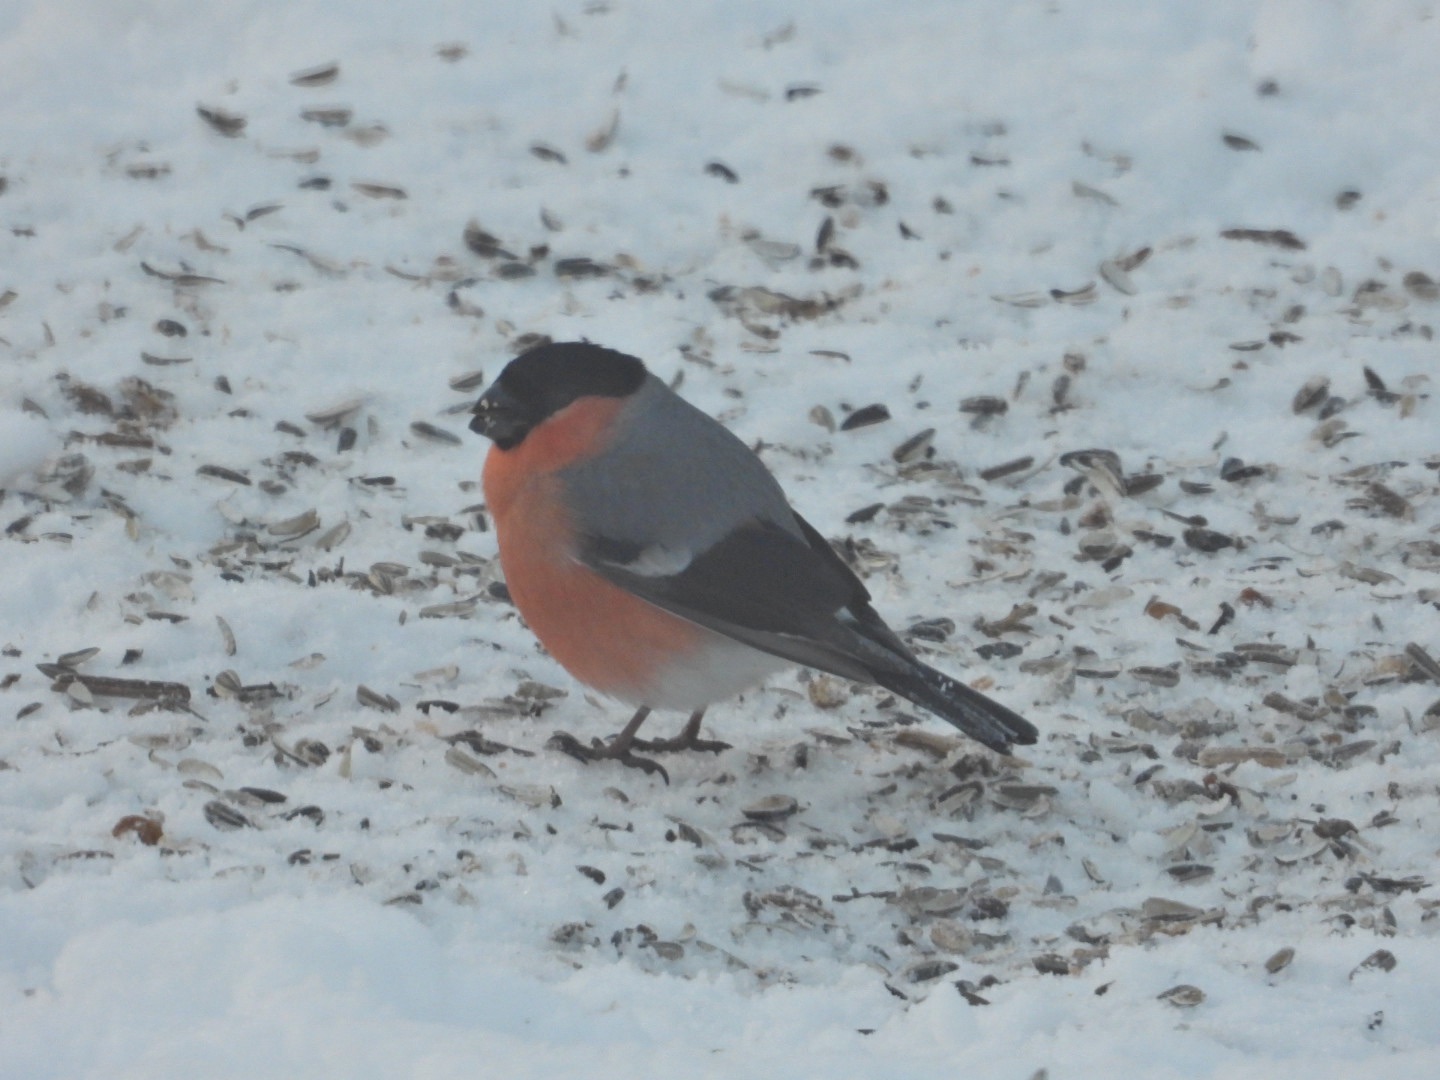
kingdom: Animalia
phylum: Chordata
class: Aves
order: Passeriformes
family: Fringillidae
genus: Pyrrhula
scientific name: Pyrrhula pyrrhula
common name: Dompap
